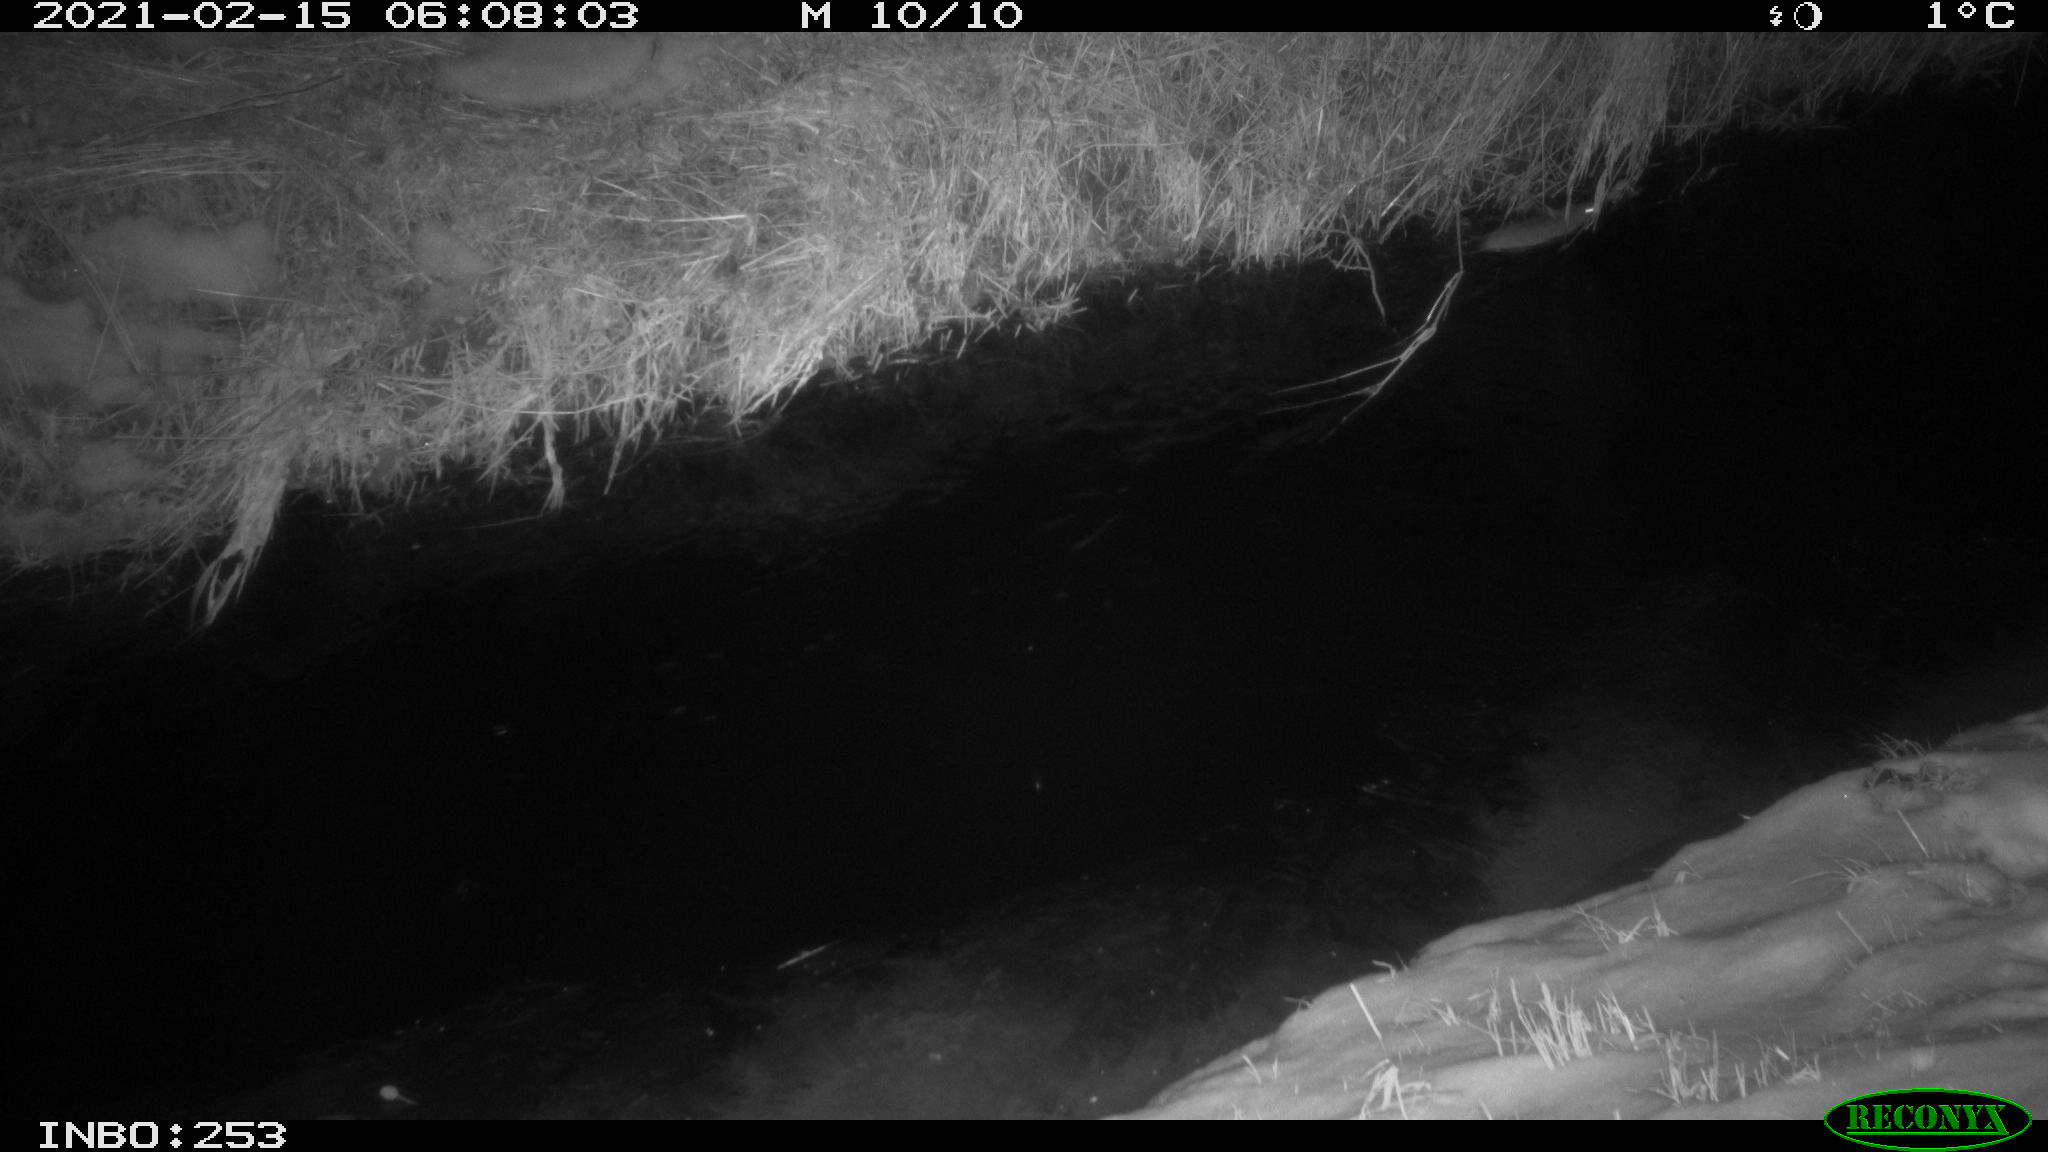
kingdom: Animalia
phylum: Chordata
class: Mammalia
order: Rodentia
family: Muridae
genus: Rattus
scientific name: Rattus norvegicus
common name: Brown rat
